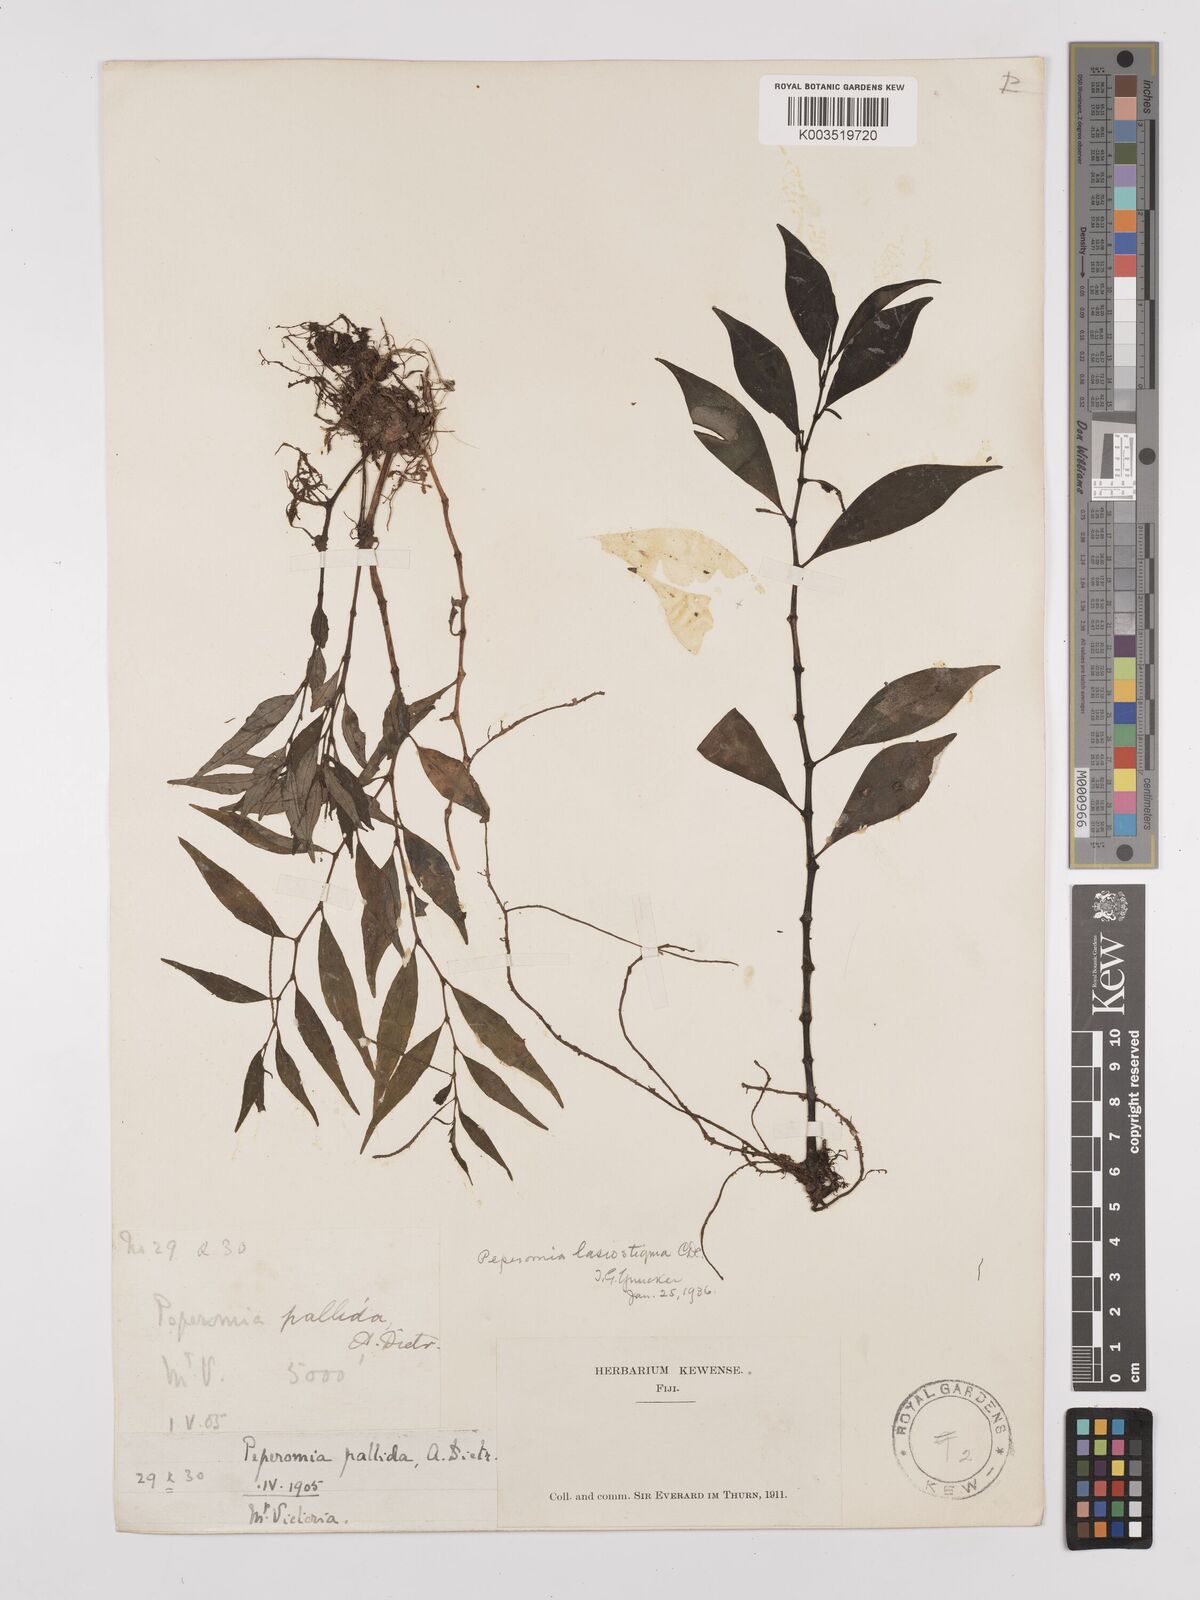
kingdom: Plantae
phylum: Tracheophyta
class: Magnoliopsida
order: Piperales
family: Piperaceae
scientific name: Piperaceae
